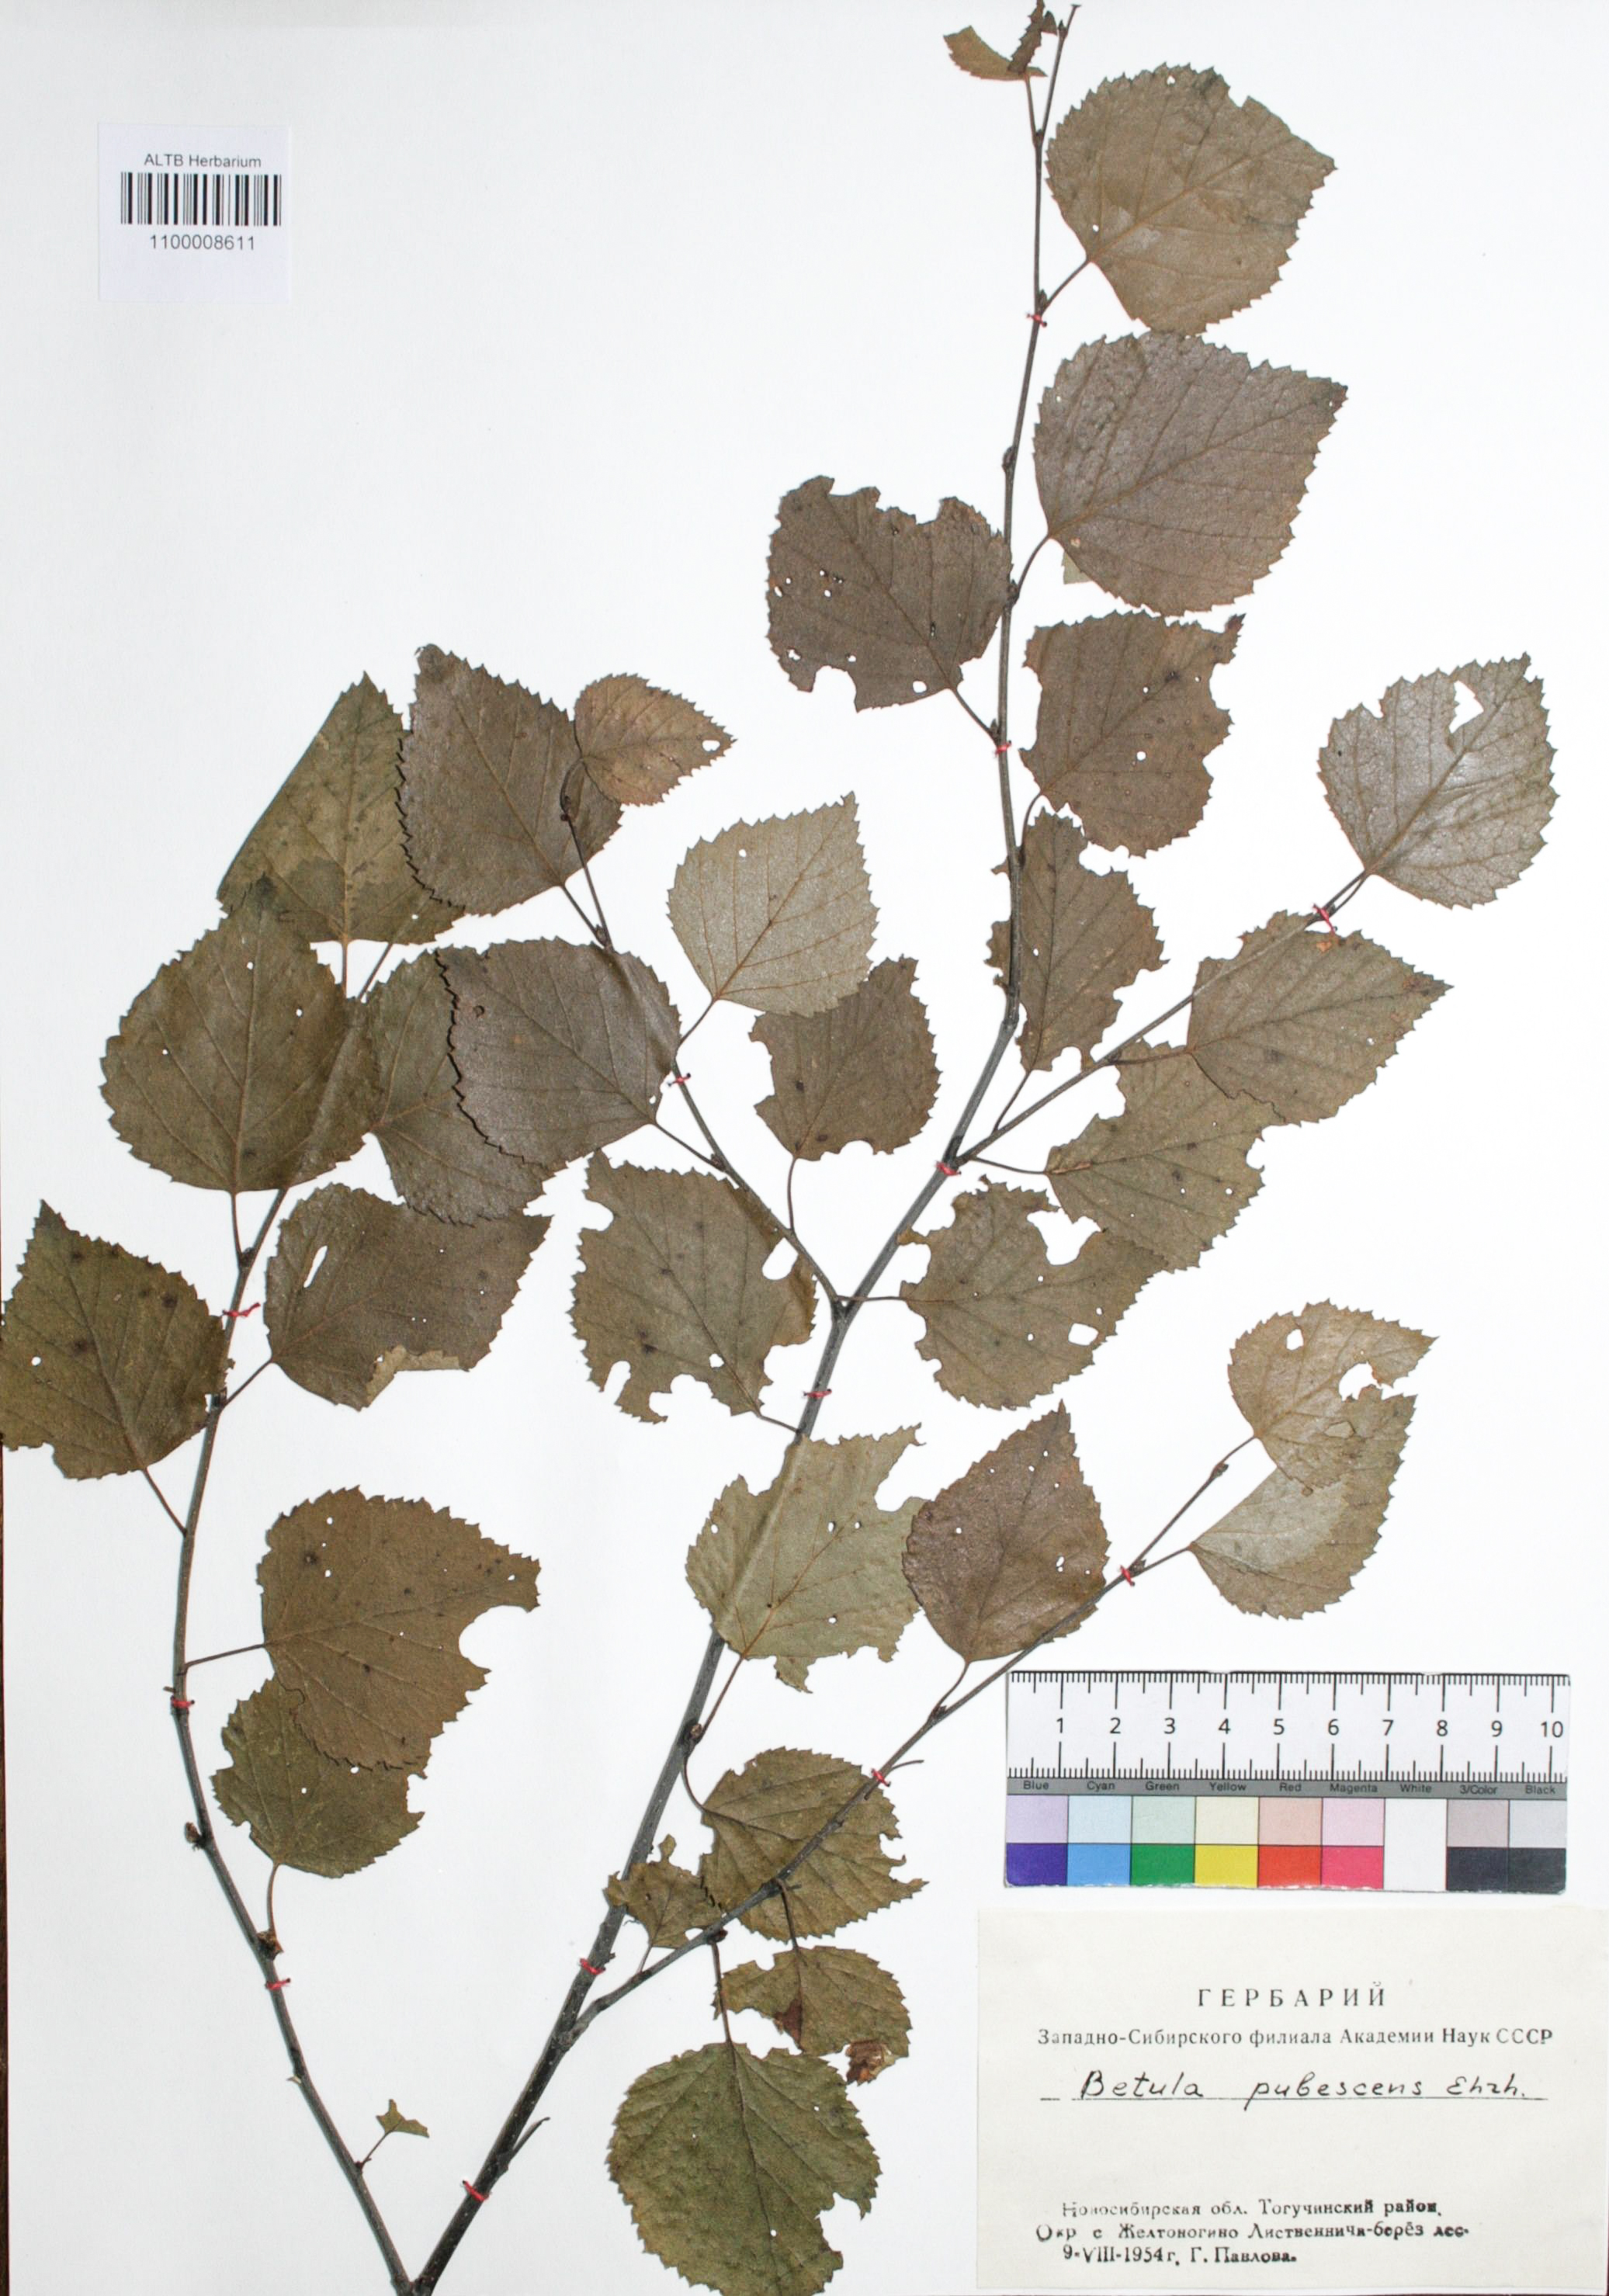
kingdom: Plantae
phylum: Tracheophyta
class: Magnoliopsida
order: Fagales
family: Betulaceae
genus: Betula
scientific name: Betula pubescens
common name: Downy birch
